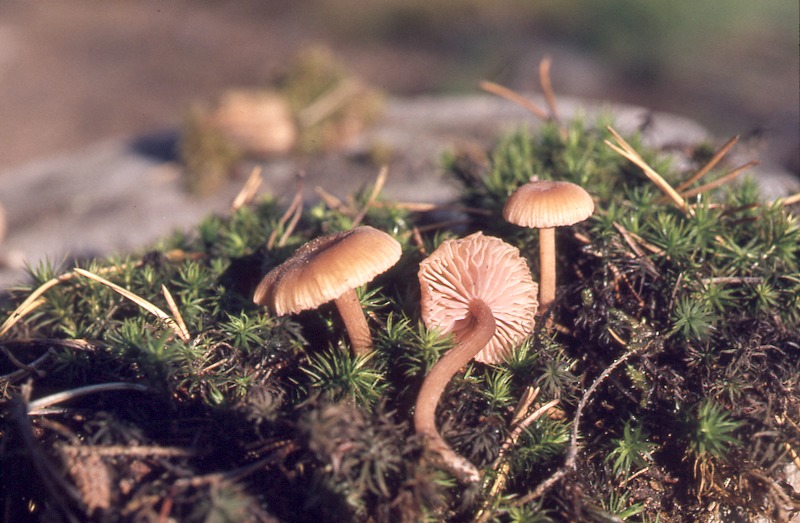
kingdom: Fungi
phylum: Basidiomycota
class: Agaricomycetes
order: Agaricales
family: Hydnangiaceae
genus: Laccaria
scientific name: Laccaria laccata
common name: Deceiver
